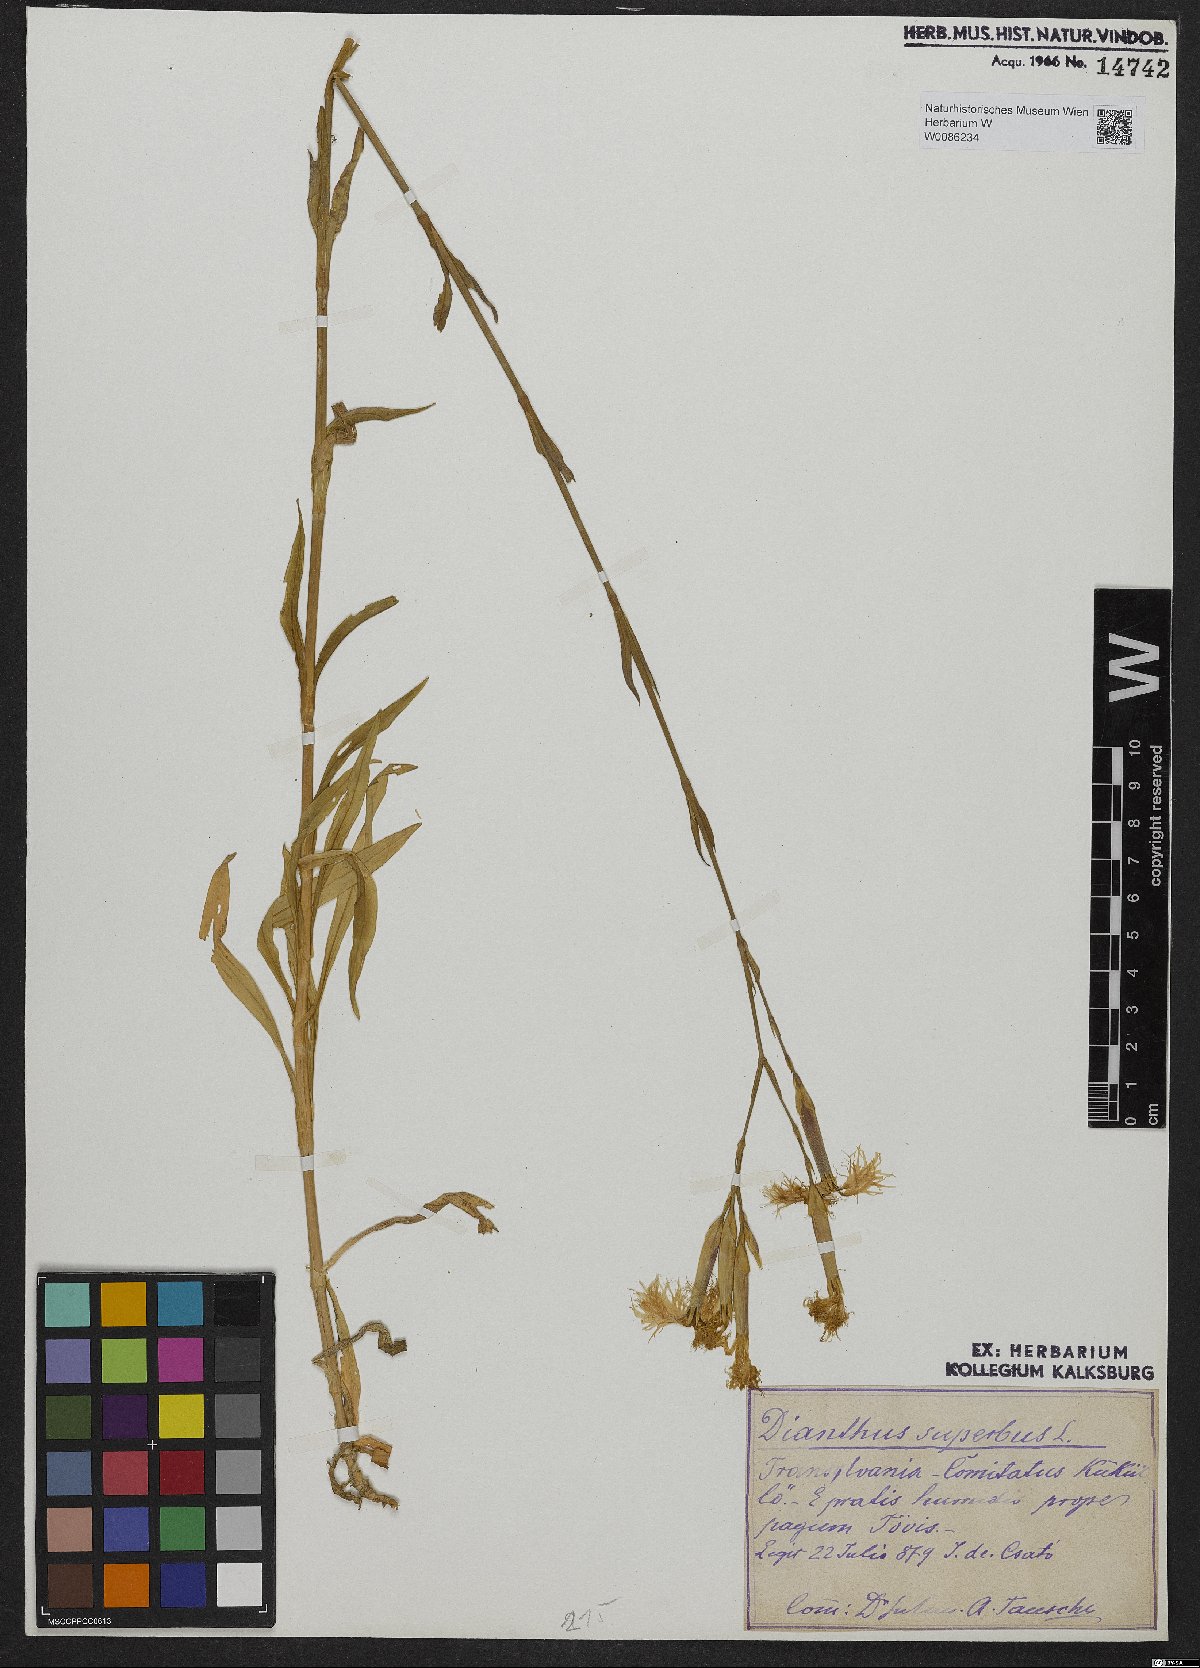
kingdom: Plantae
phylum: Tracheophyta
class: Magnoliopsida
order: Caryophyllales
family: Caryophyllaceae
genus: Dianthus
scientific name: Dianthus superbus
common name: Fringed pink
